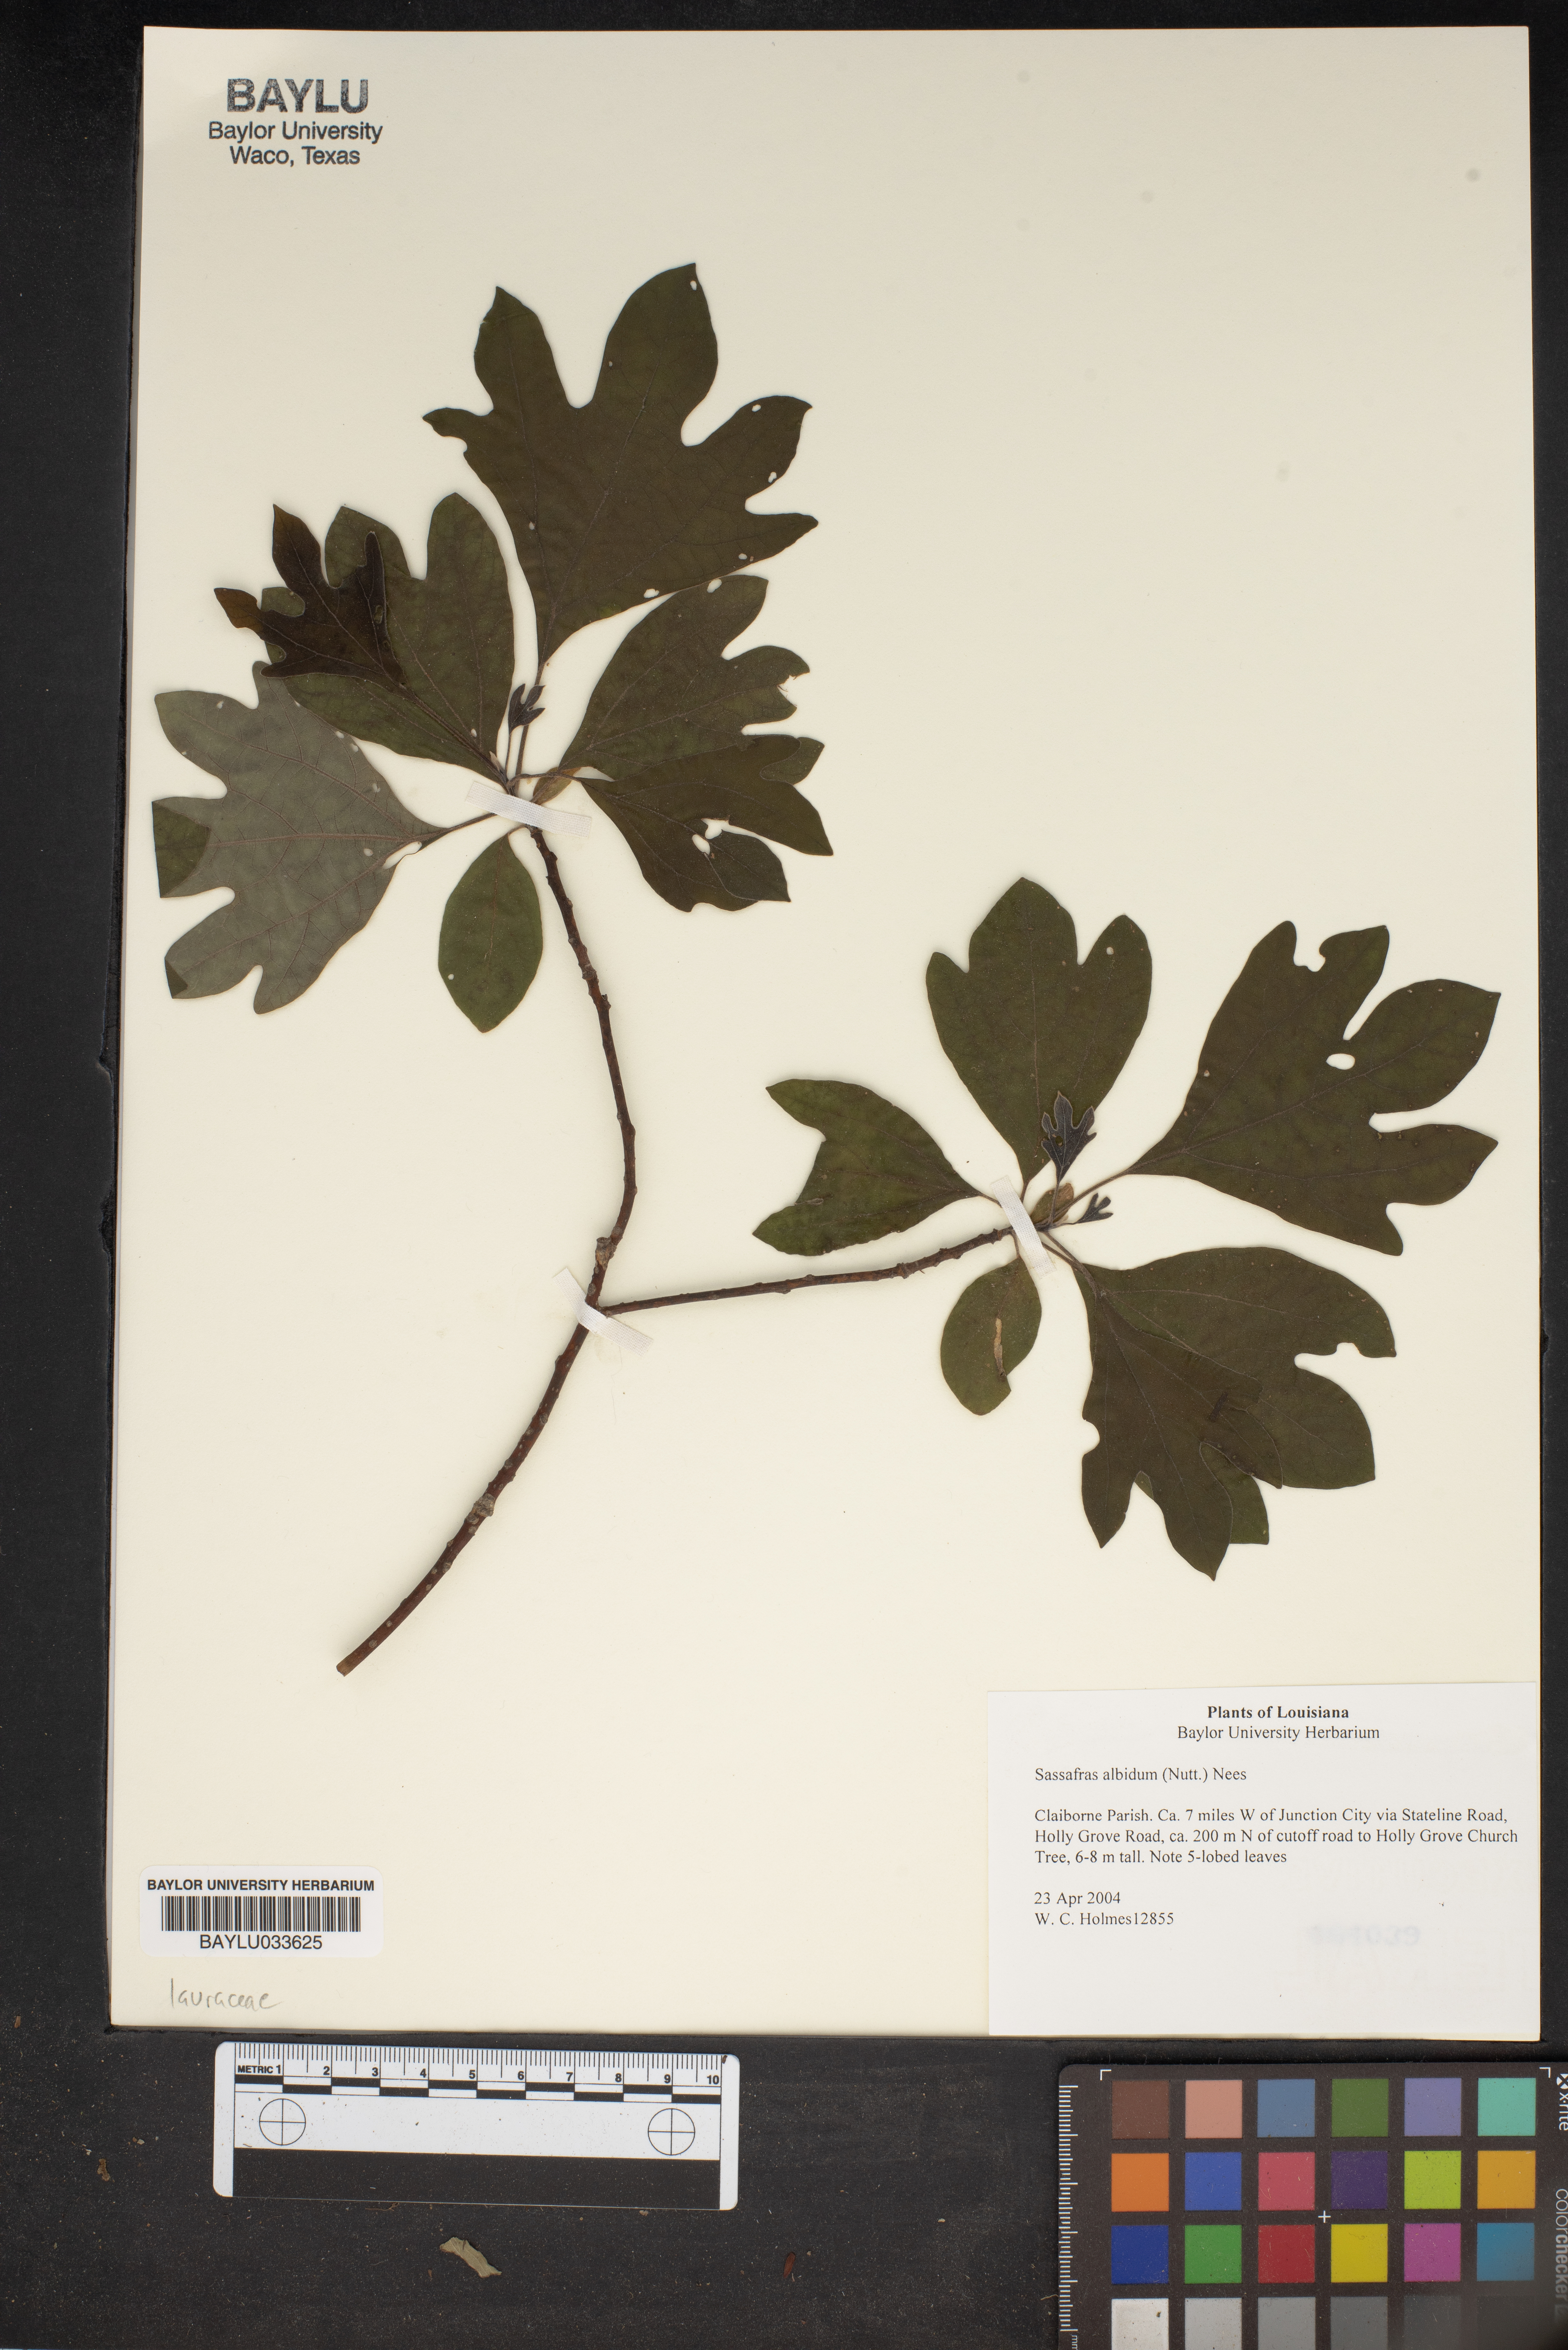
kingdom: Plantae
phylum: Tracheophyta
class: Magnoliopsida
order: Laurales
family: Lauraceae
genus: Sassafras
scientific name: Sassafras albidum
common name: Sassafras
